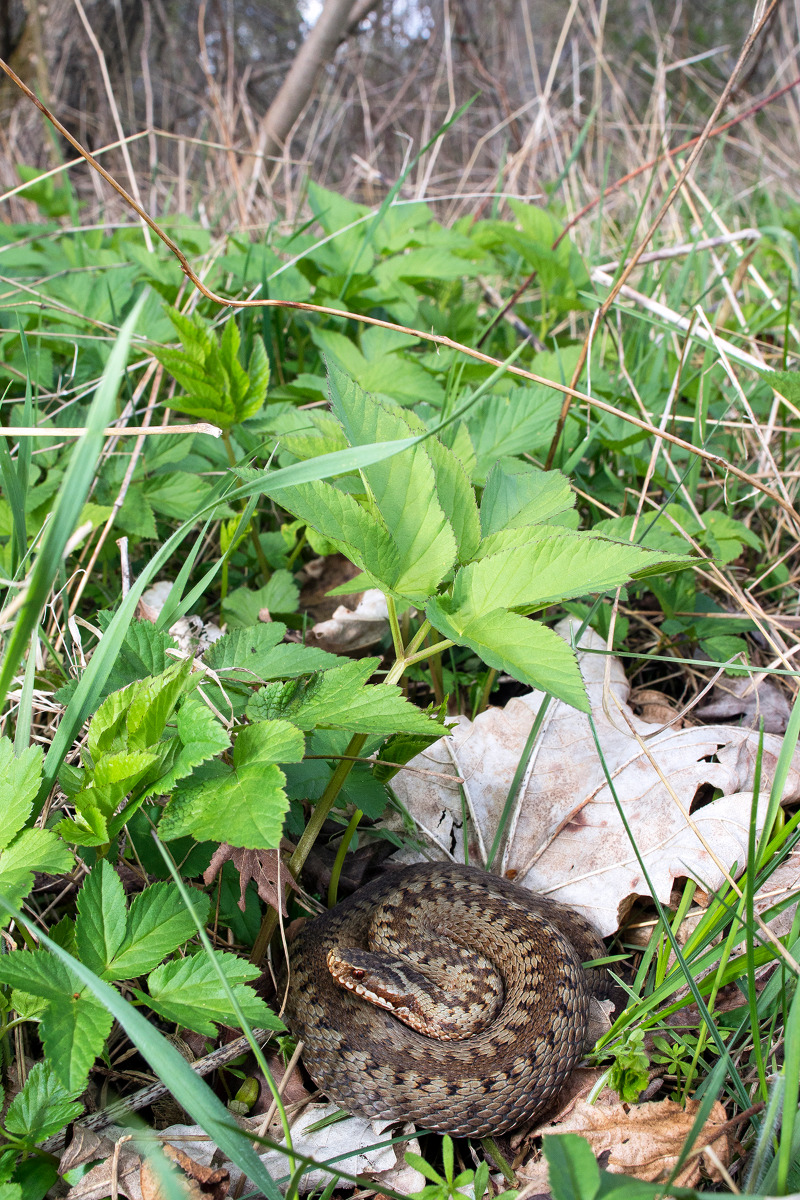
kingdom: Animalia
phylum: Chordata
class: Squamata
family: Viperidae
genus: Vipera
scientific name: Vipera berus
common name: Hugorm
